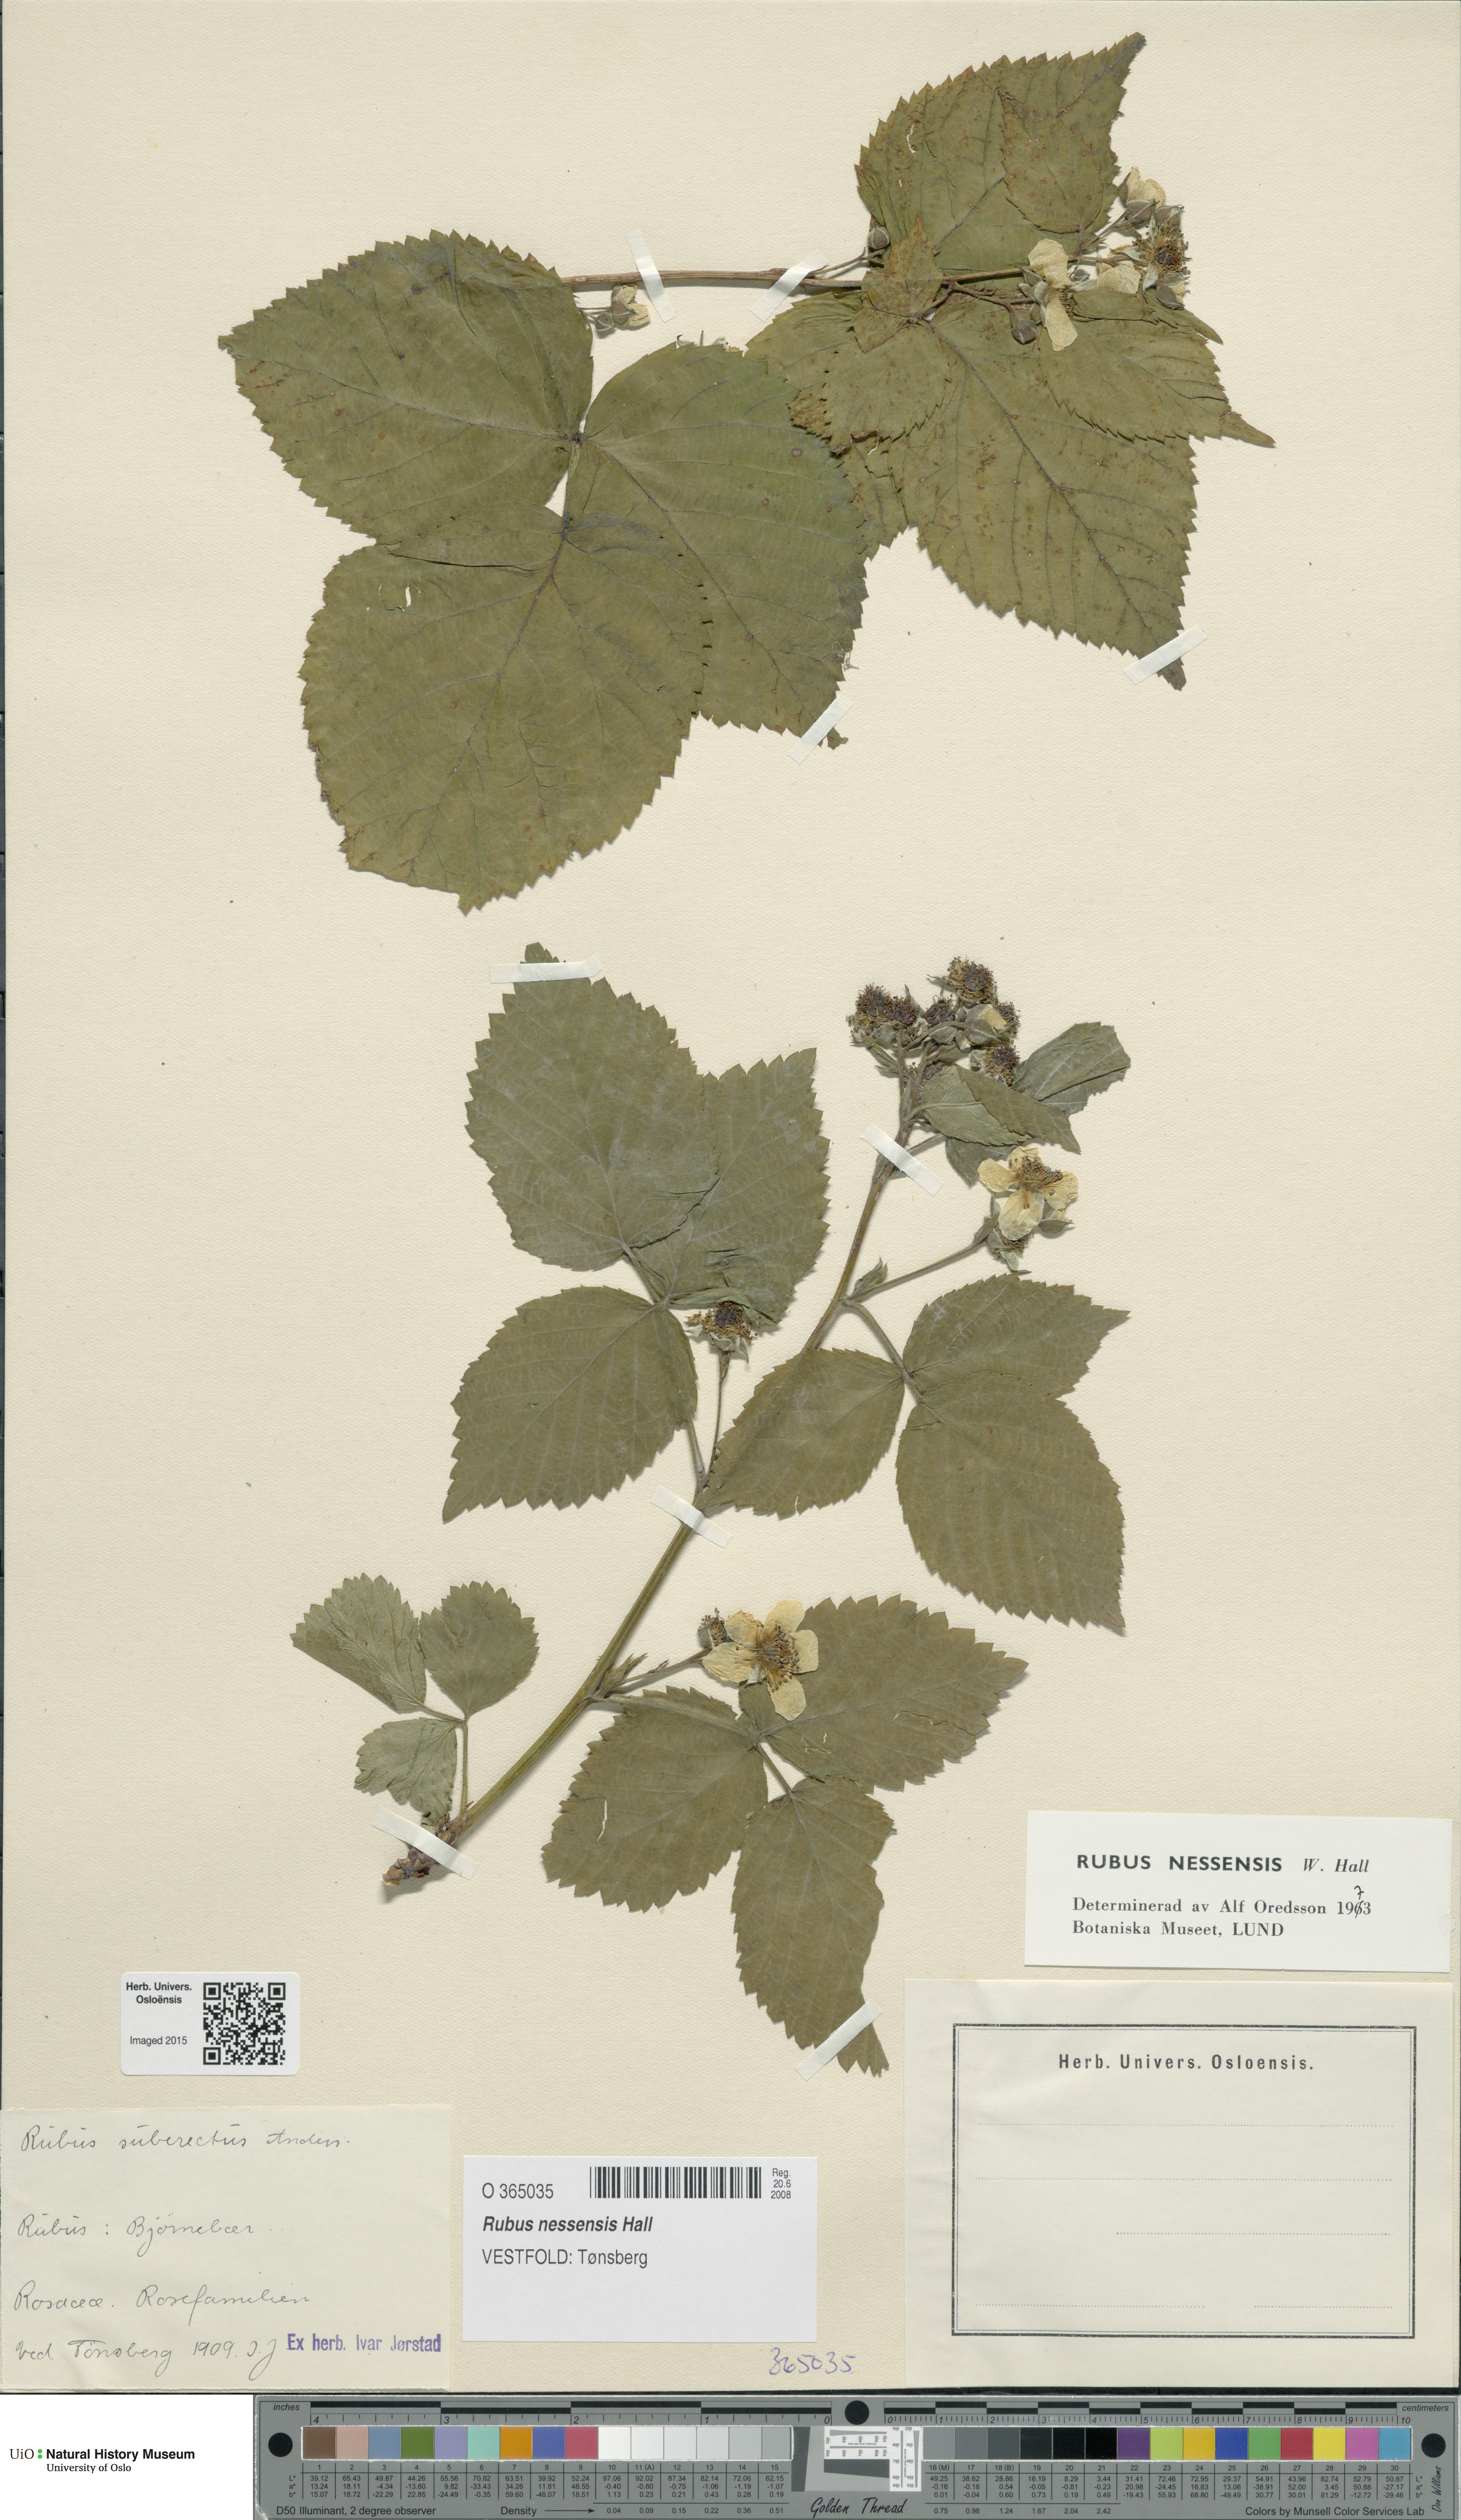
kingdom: Plantae
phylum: Tracheophyta
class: Magnoliopsida
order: Rosales
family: Rosaceae
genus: Rubus
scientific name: Rubus polonicus
